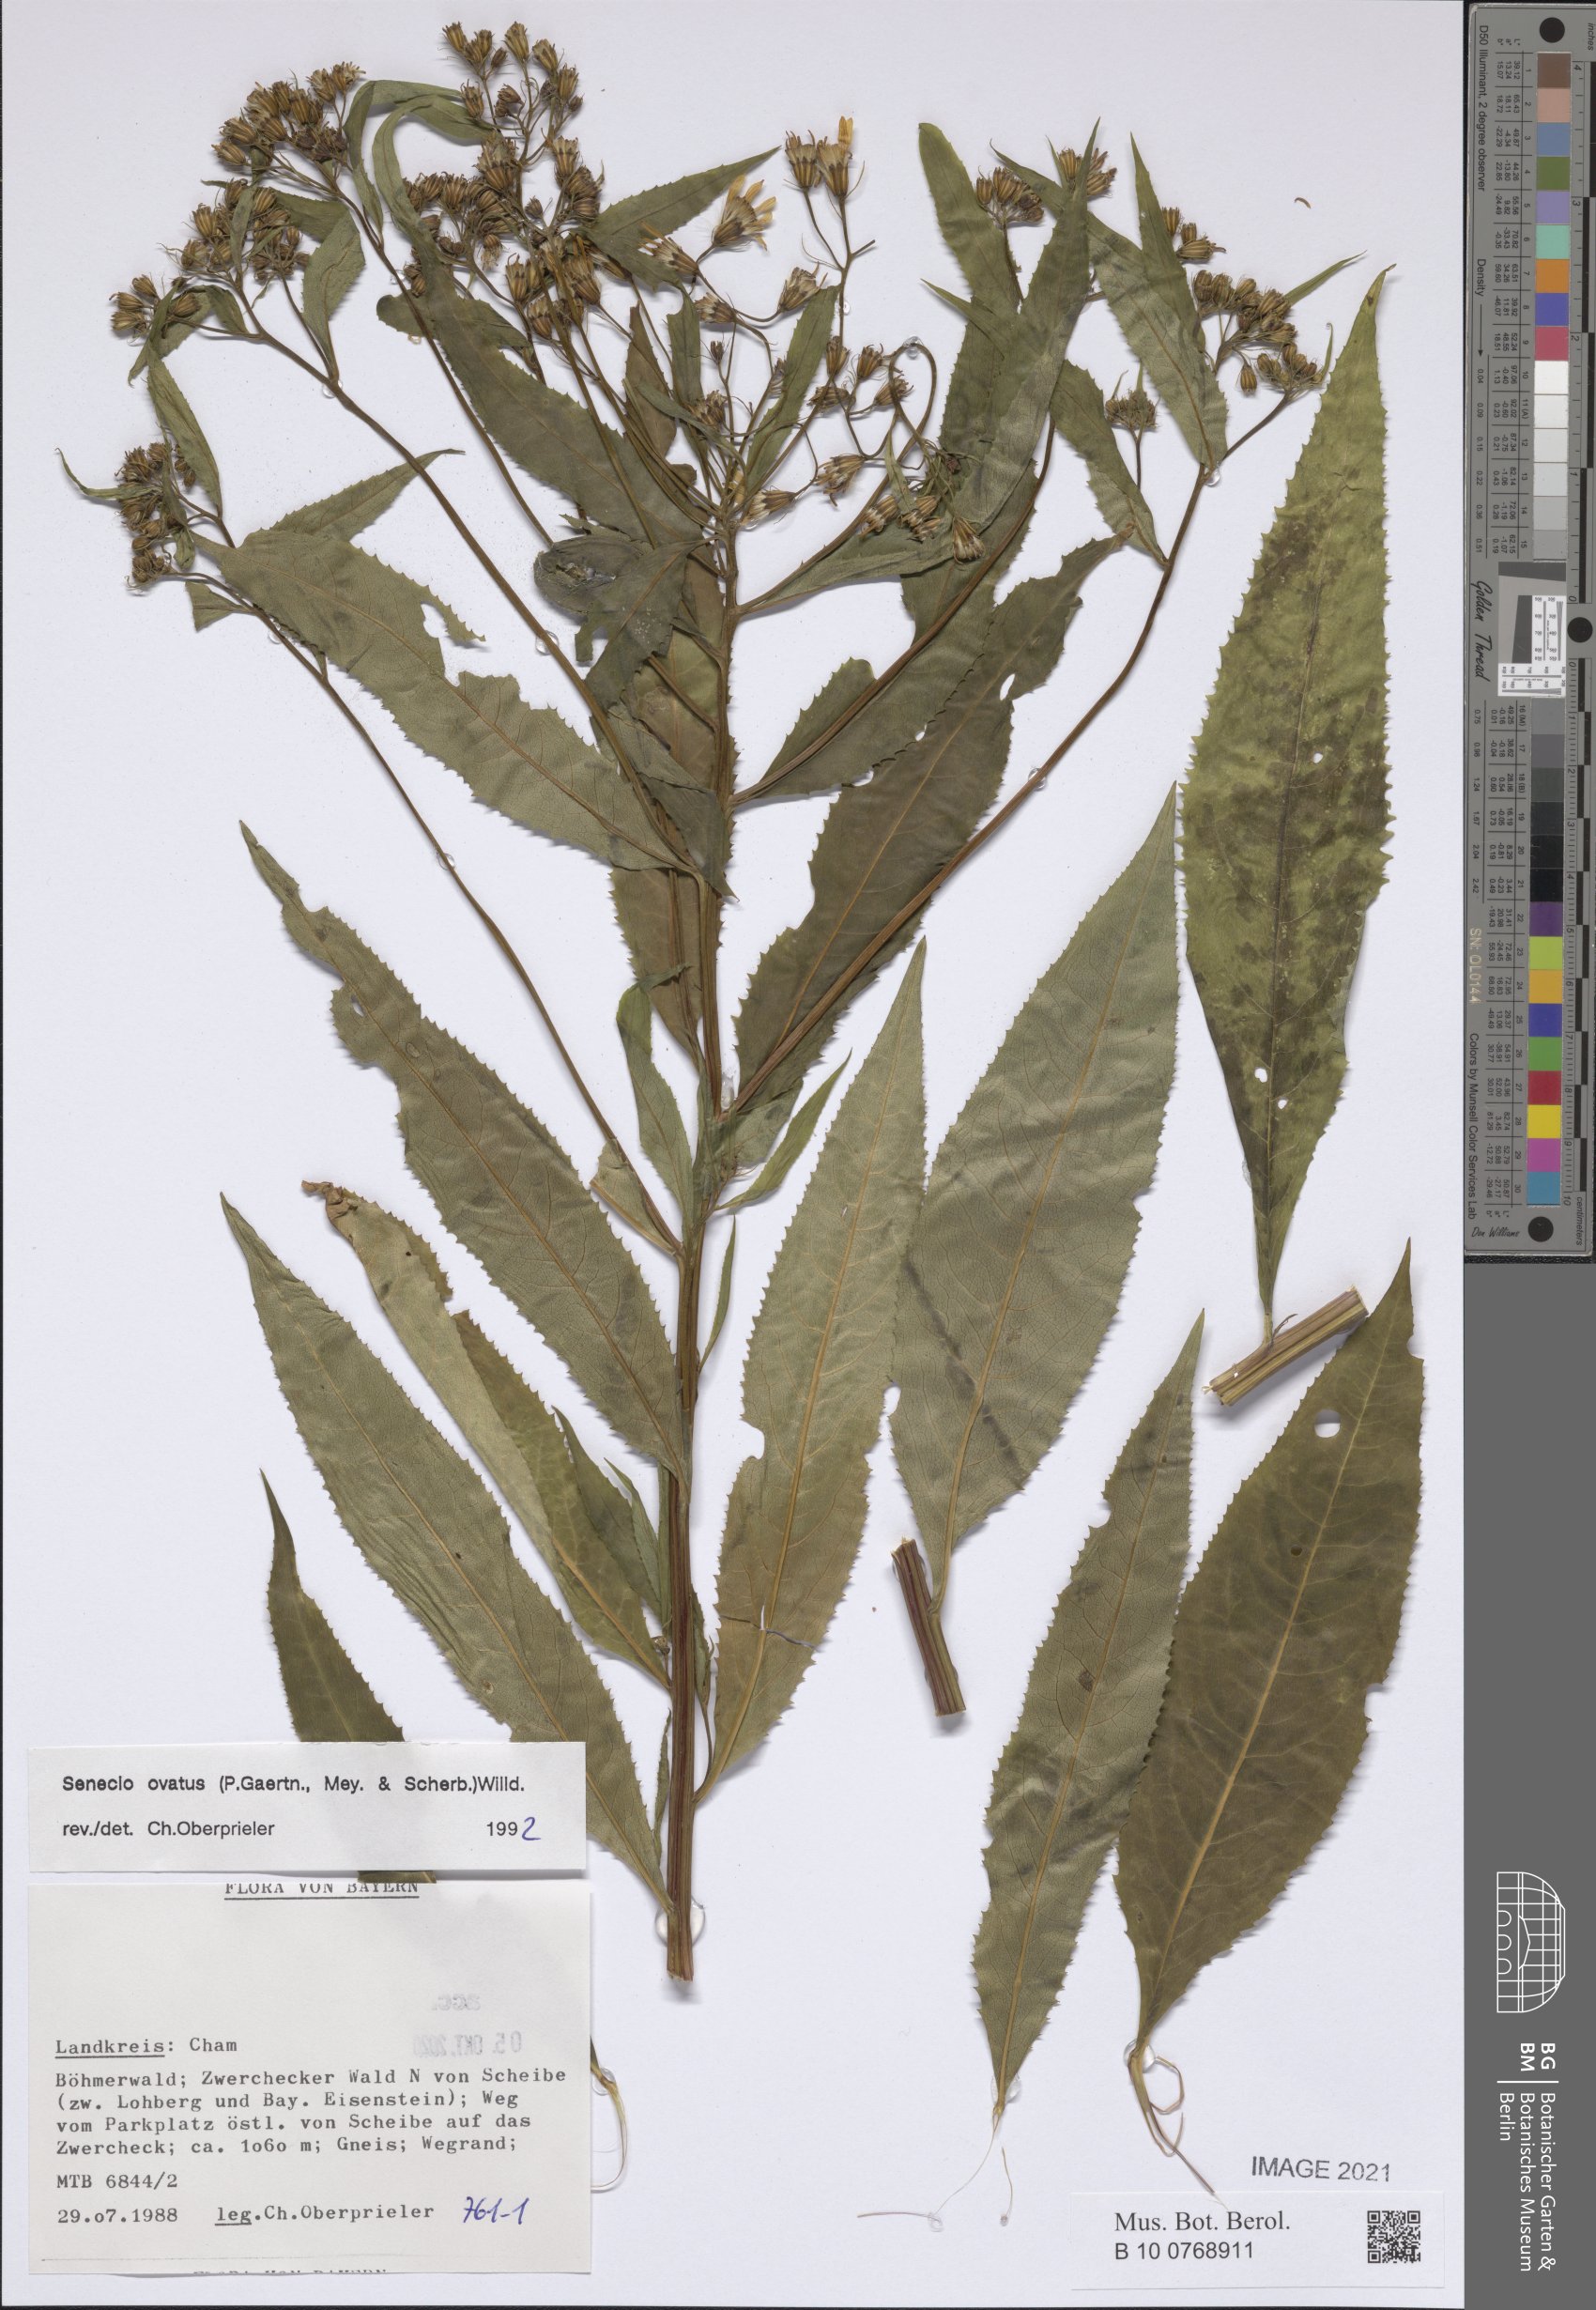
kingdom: Plantae
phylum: Tracheophyta
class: Magnoliopsida
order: Asterales
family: Asteraceae
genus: Senecio
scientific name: Senecio ovatus
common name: Wood ragwort
